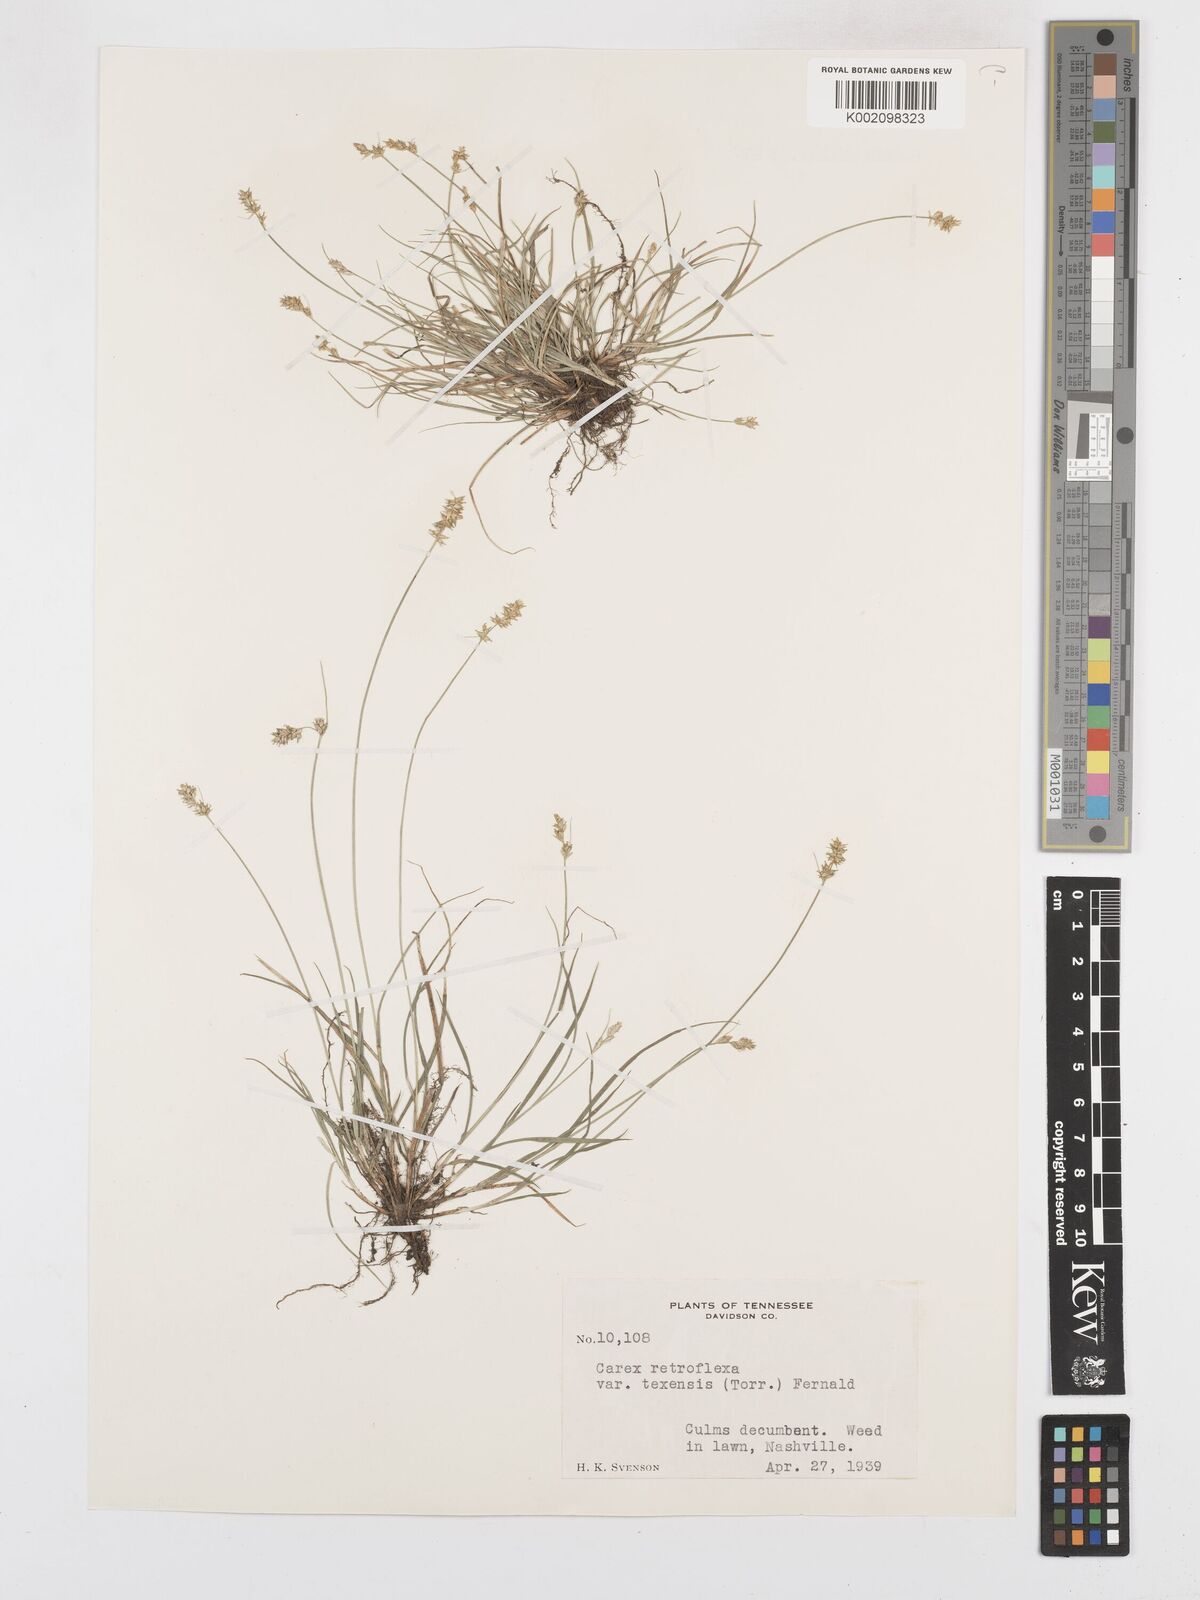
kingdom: Plantae
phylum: Tracheophyta
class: Liliopsida
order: Poales
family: Cyperaceae
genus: Carex
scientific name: Carex texensis
